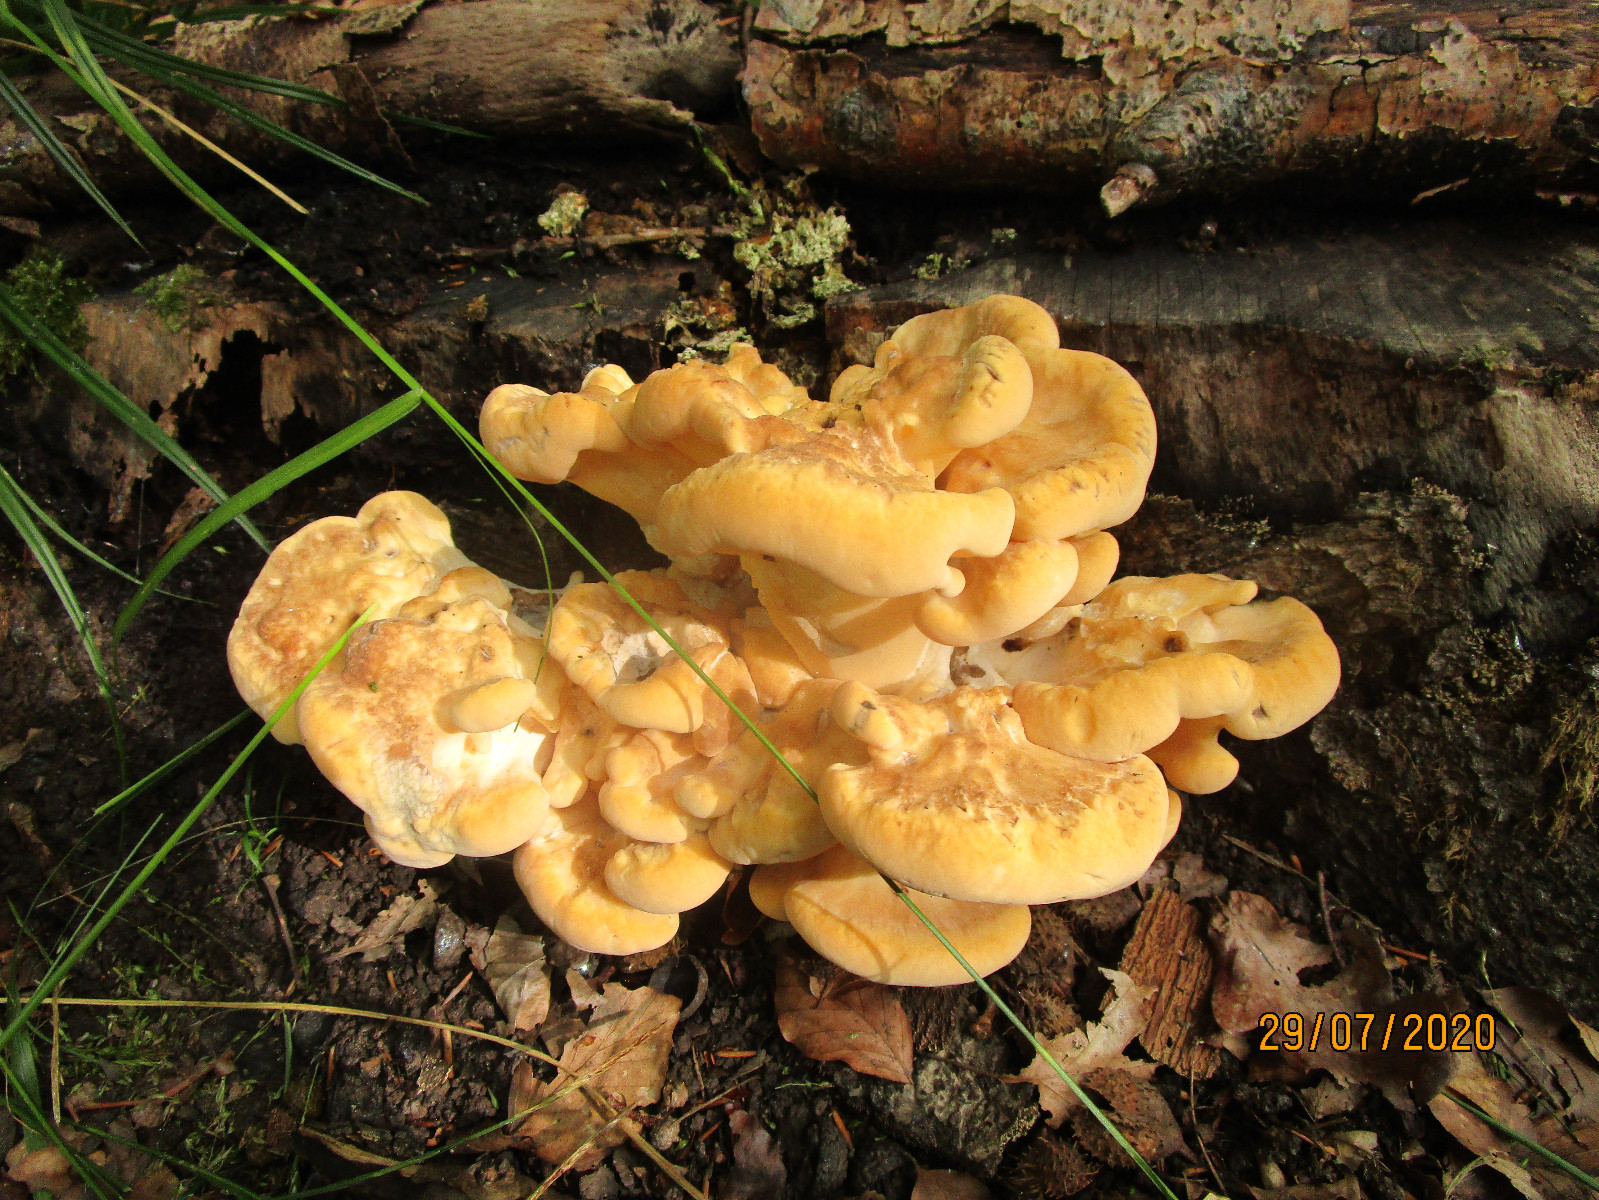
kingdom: Fungi
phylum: Basidiomycota
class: Agaricomycetes
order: Polyporales
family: Meripilaceae
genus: Meripilus
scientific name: Meripilus giganteus
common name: kæmpeporesvamp
